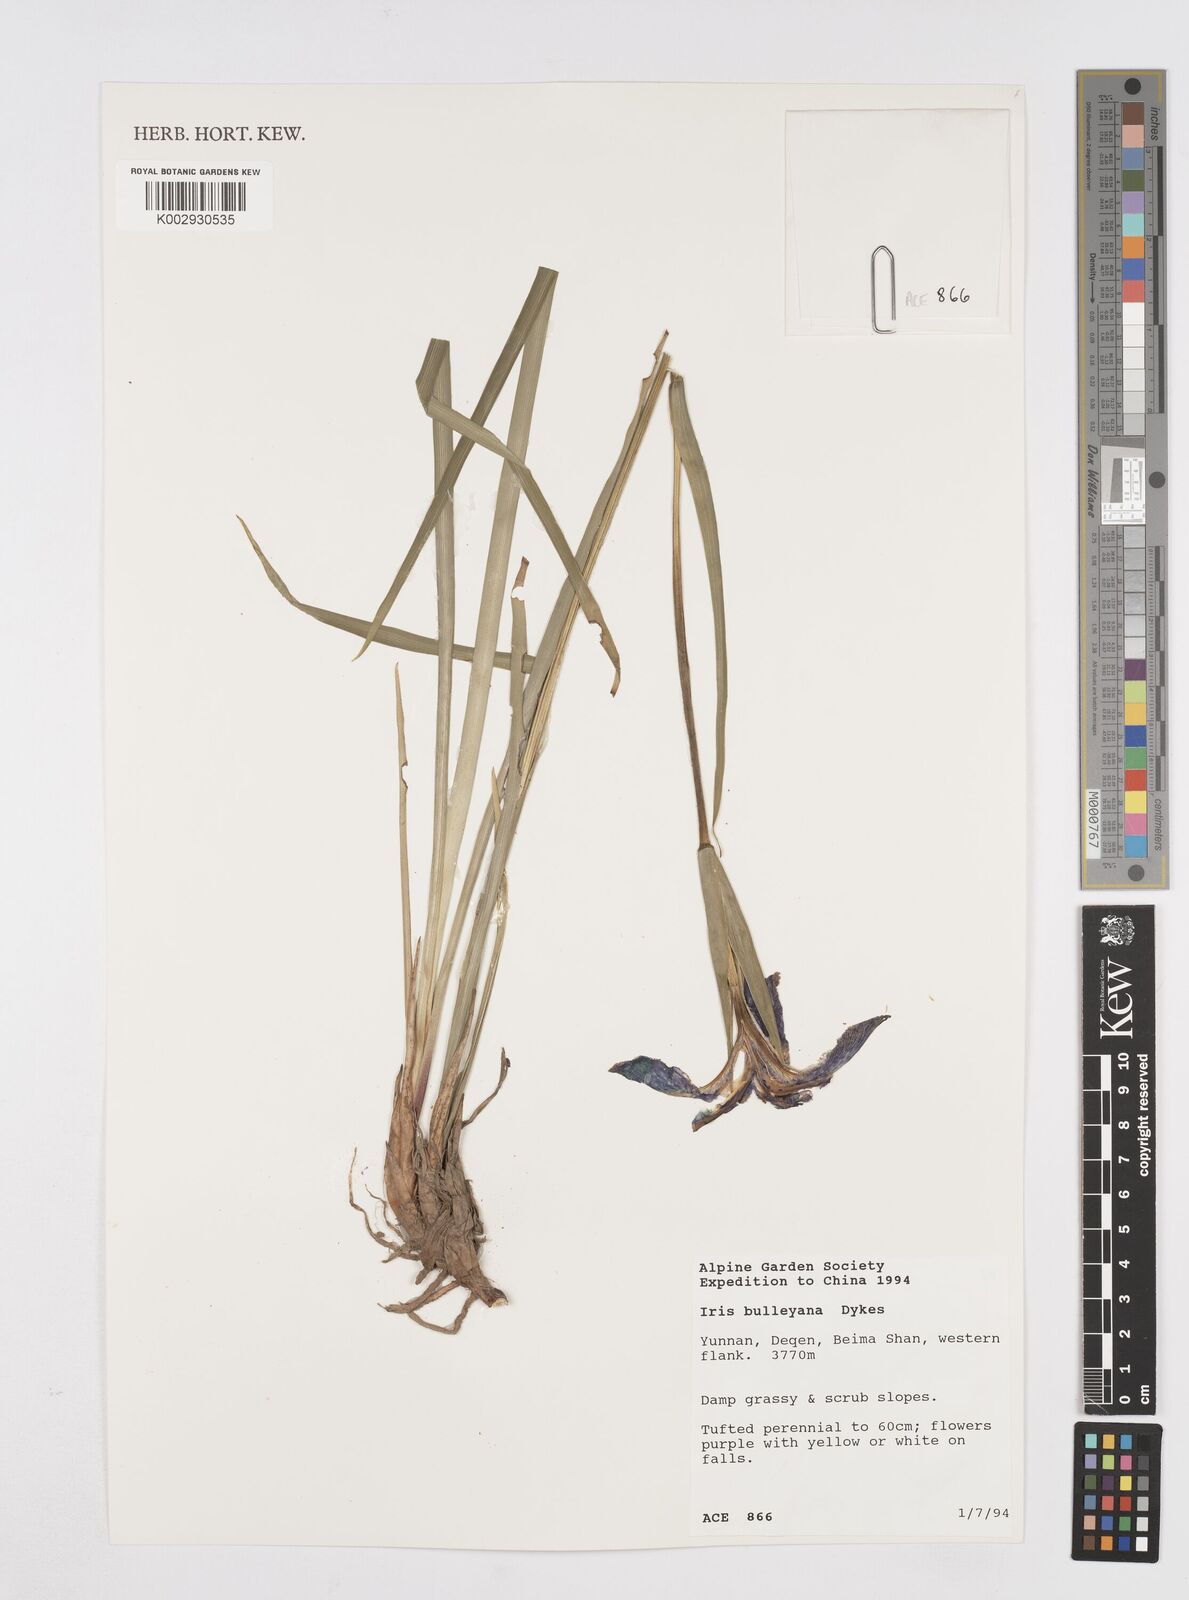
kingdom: Plantae
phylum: Tracheophyta
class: Liliopsida
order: Asparagales
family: Iridaceae
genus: Iris
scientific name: Iris bulleyana
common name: Southwest iris
